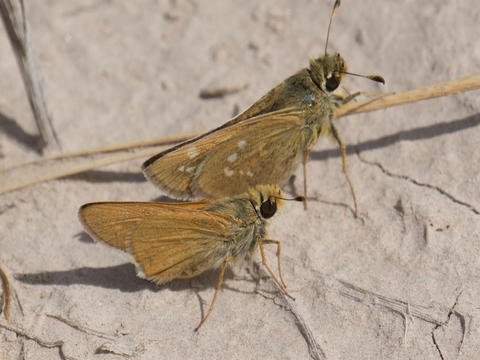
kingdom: Animalia
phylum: Arthropoda
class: Insecta
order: Lepidoptera
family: Hesperiidae
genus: Hesperia
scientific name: Hesperia leonardus
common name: Leonard's Skipper
